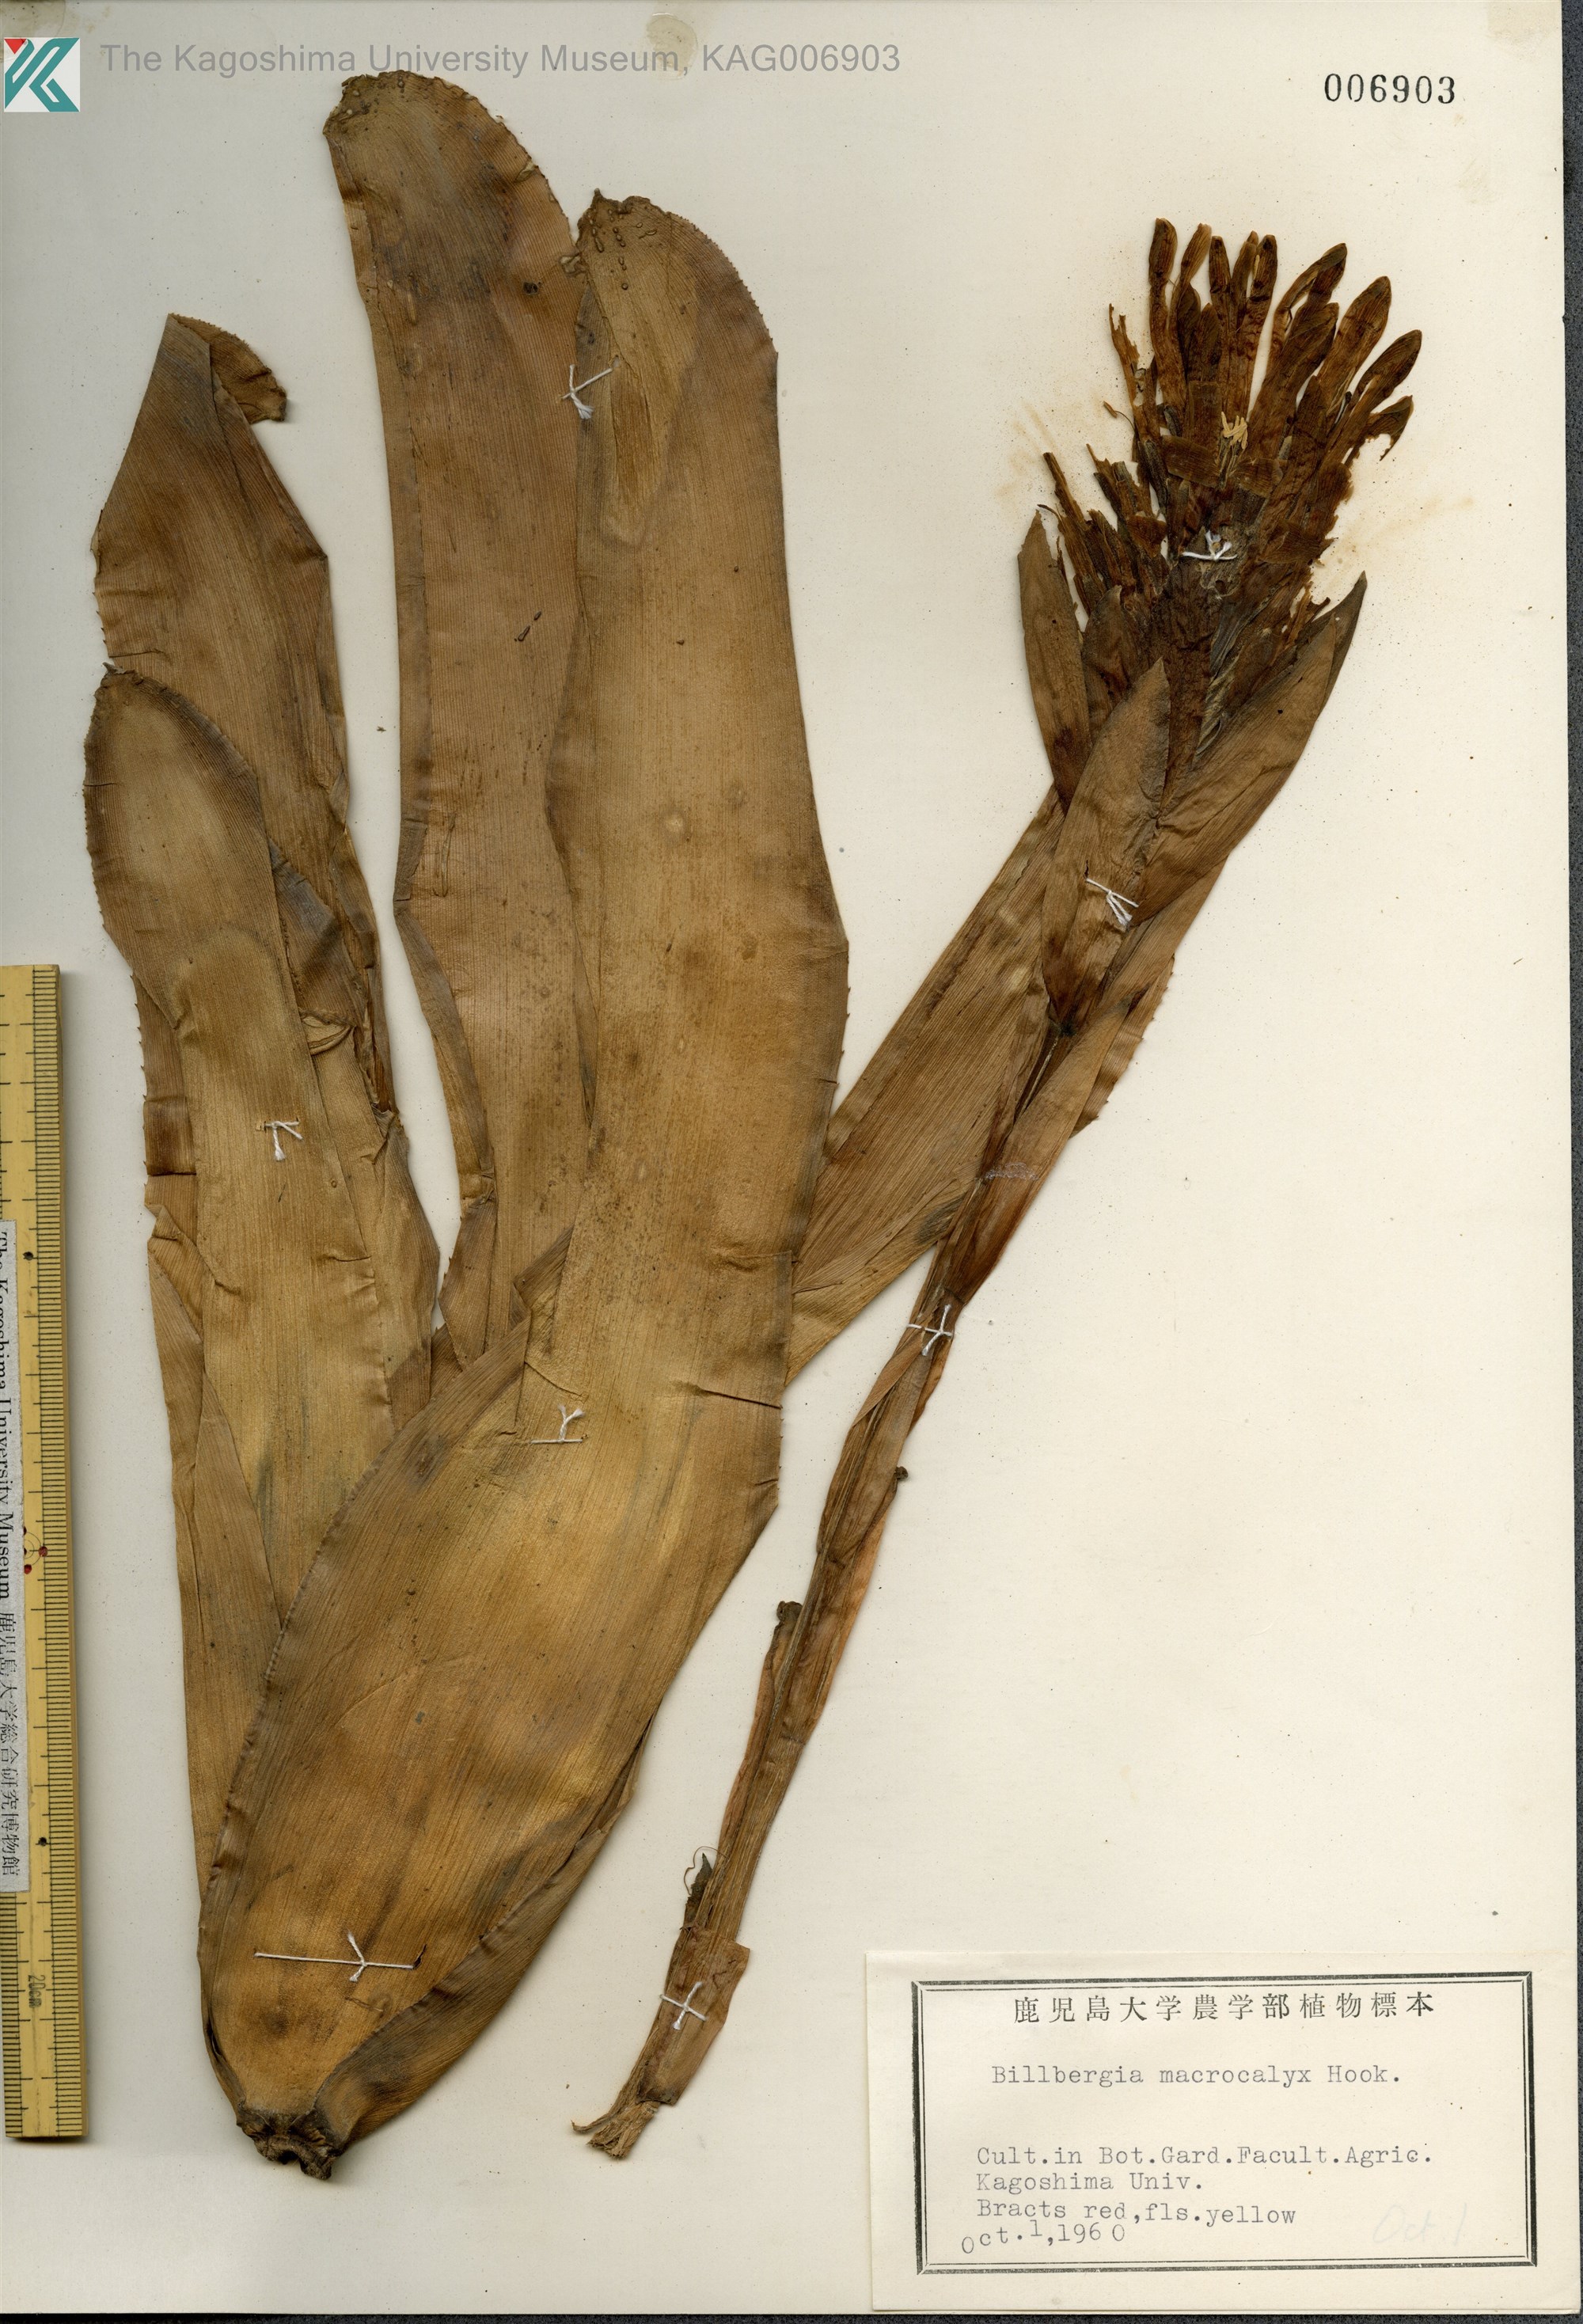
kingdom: Plantae
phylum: Tracheophyta
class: Liliopsida
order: Poales
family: Bromeliaceae
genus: Billbergia
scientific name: Billbergia macrocalyx
